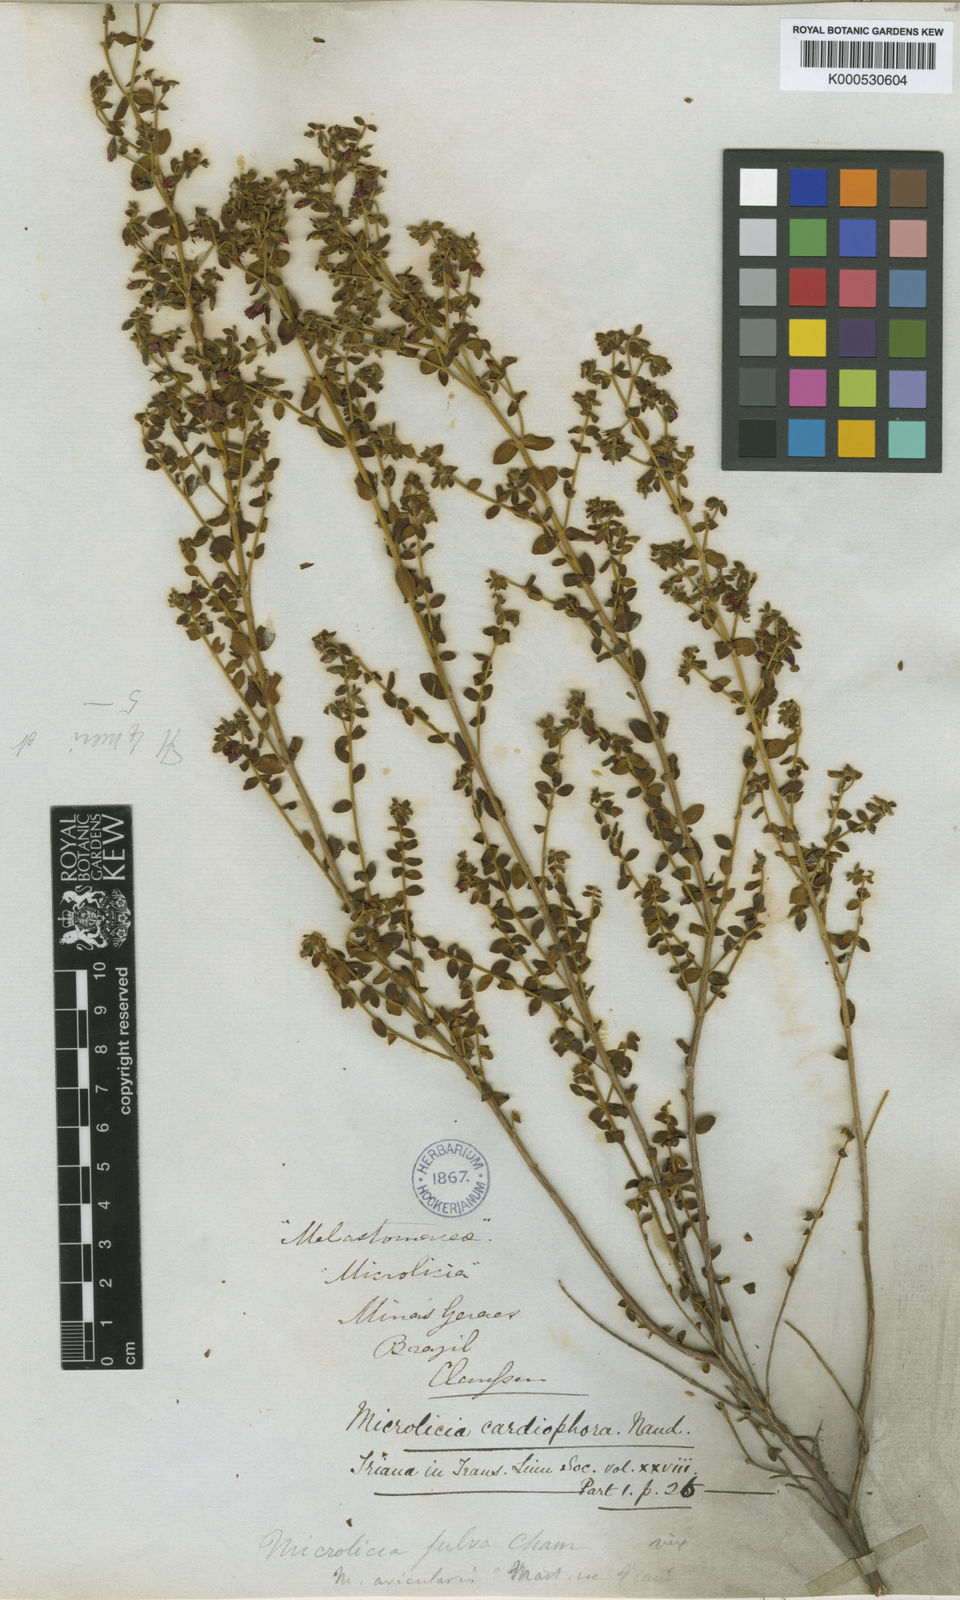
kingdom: Plantae
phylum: Tracheophyta
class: Magnoliopsida
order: Myrtales
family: Melastomataceae
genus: Microlicia
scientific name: Microlicia fulva
